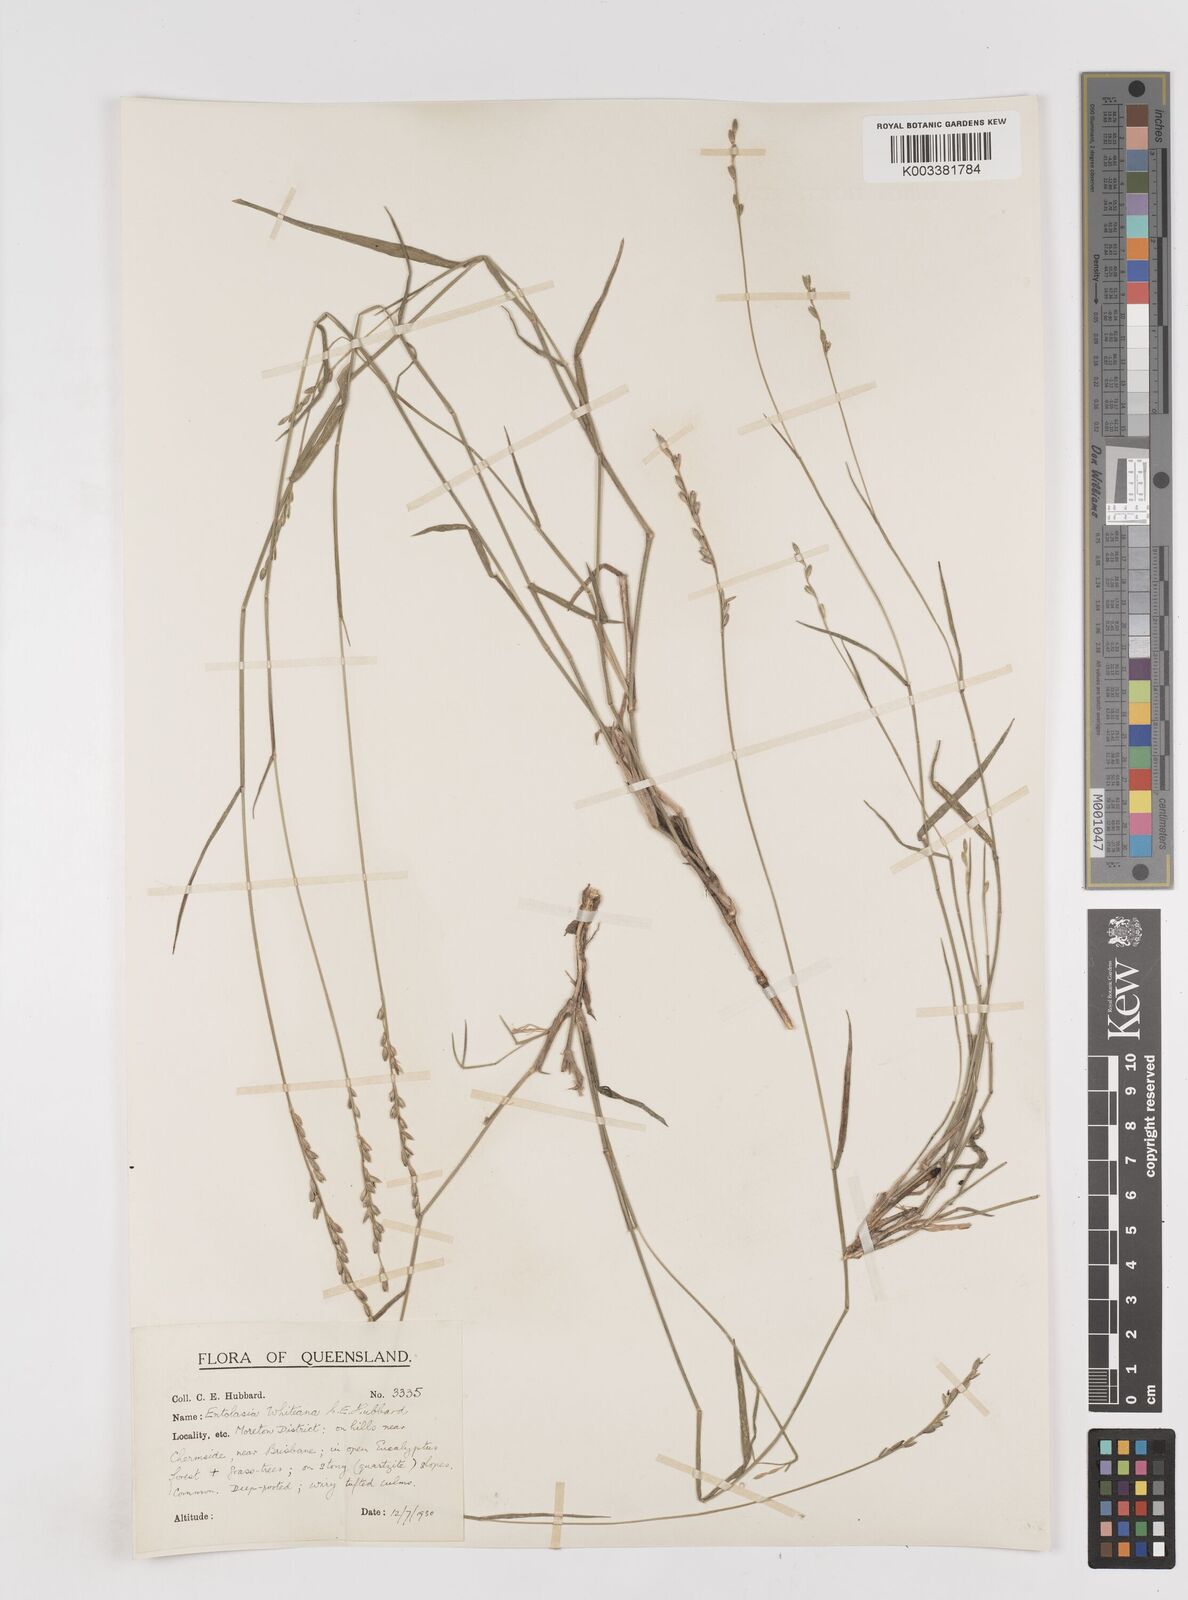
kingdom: Plantae
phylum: Tracheophyta
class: Liliopsida
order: Poales
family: Poaceae
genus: Entolasia
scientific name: Entolasia whiteana
